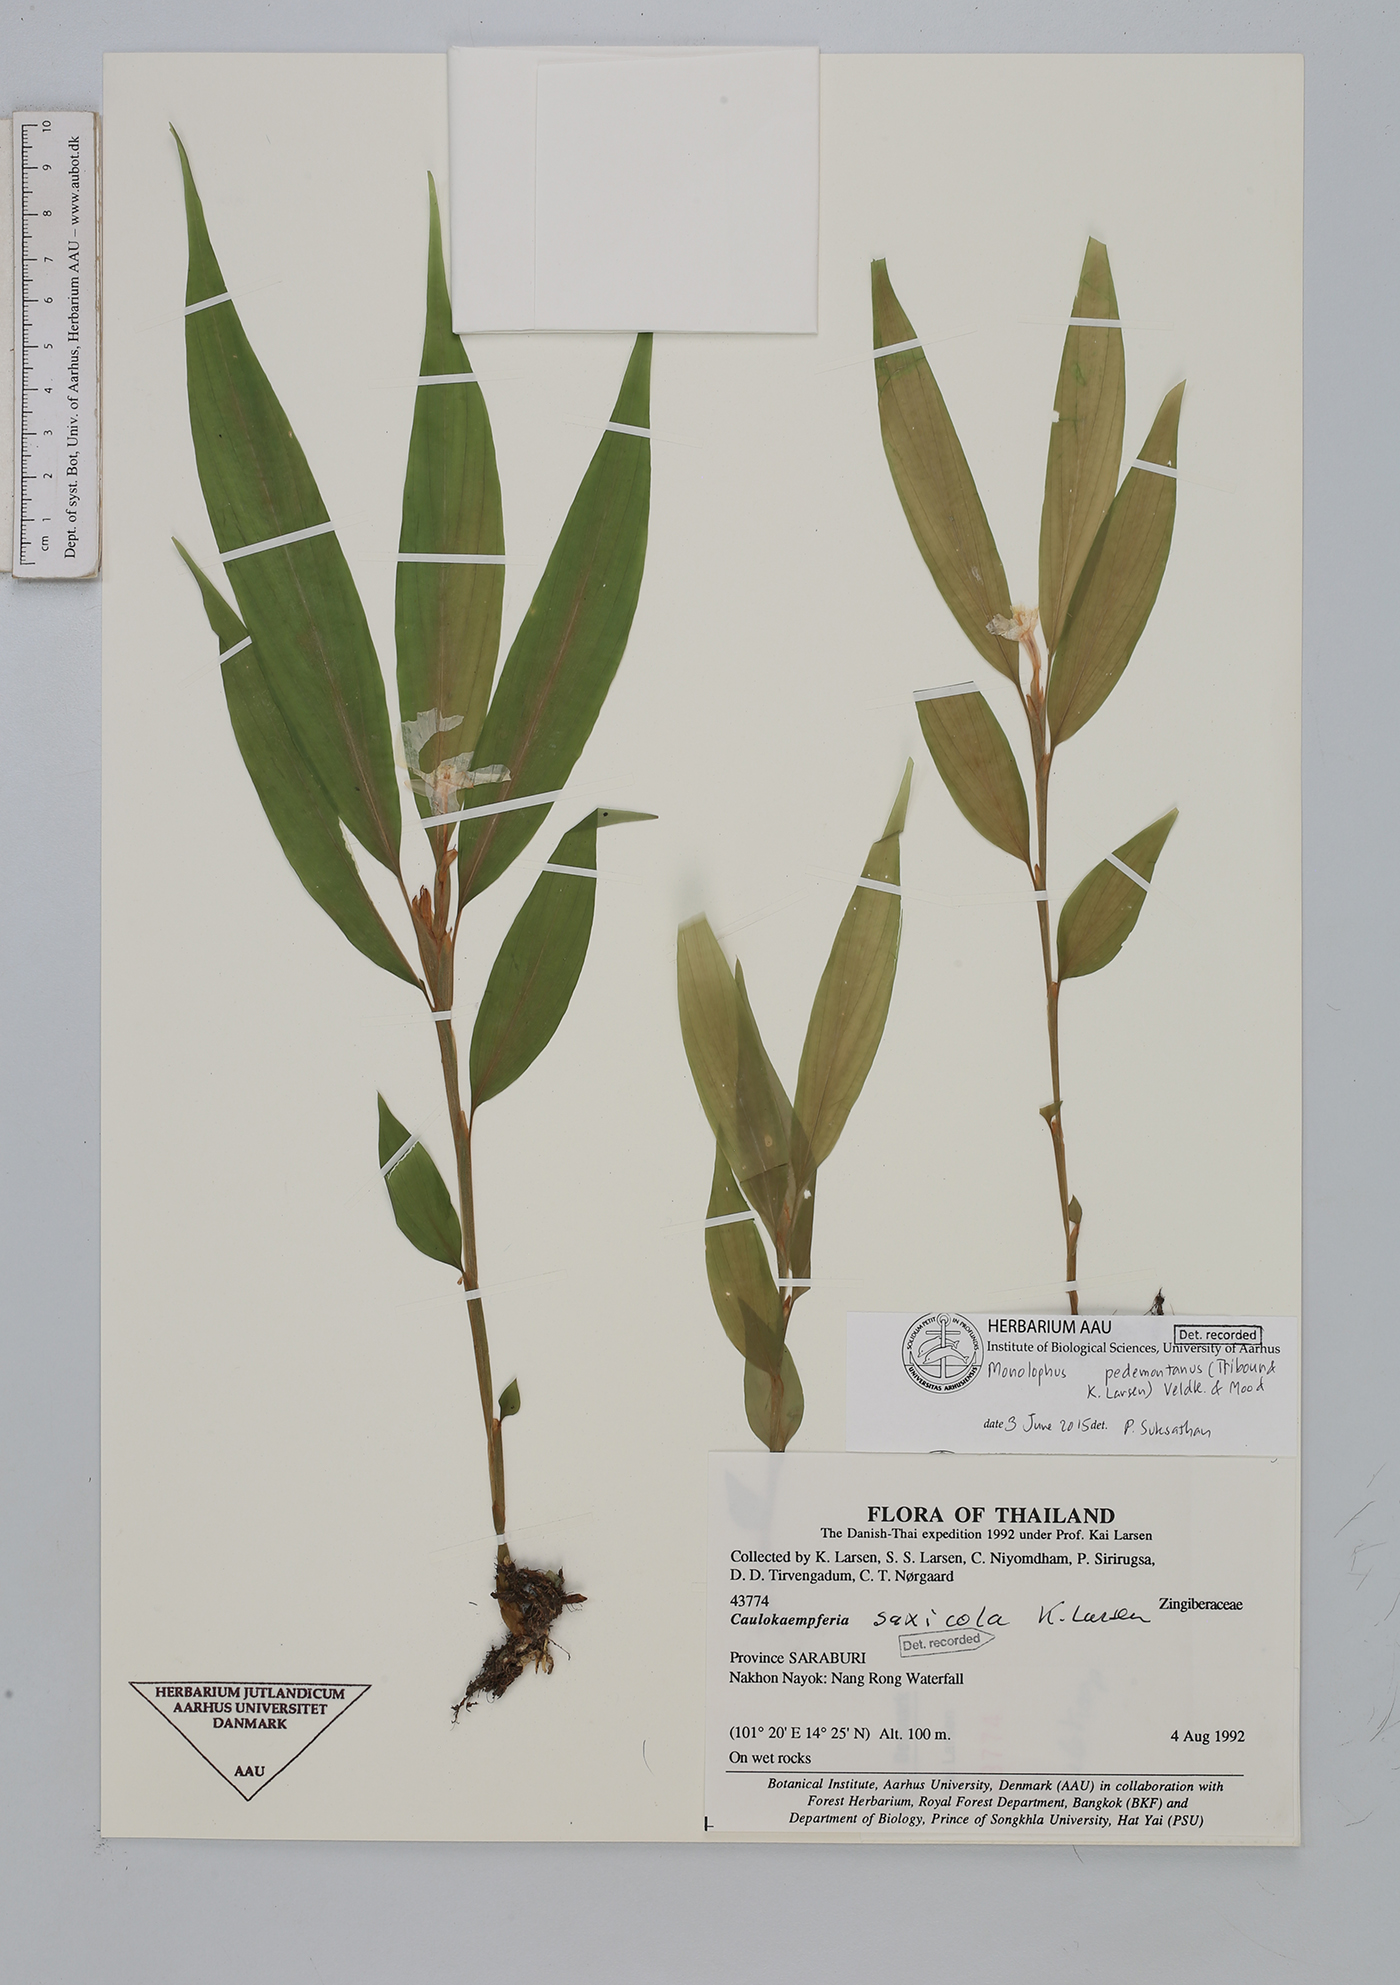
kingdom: Plantae
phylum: Tracheophyta
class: Liliopsida
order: Zingiberales
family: Zingiberaceae
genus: Caulokaempferia
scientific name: Caulokaempferia pedemontana
